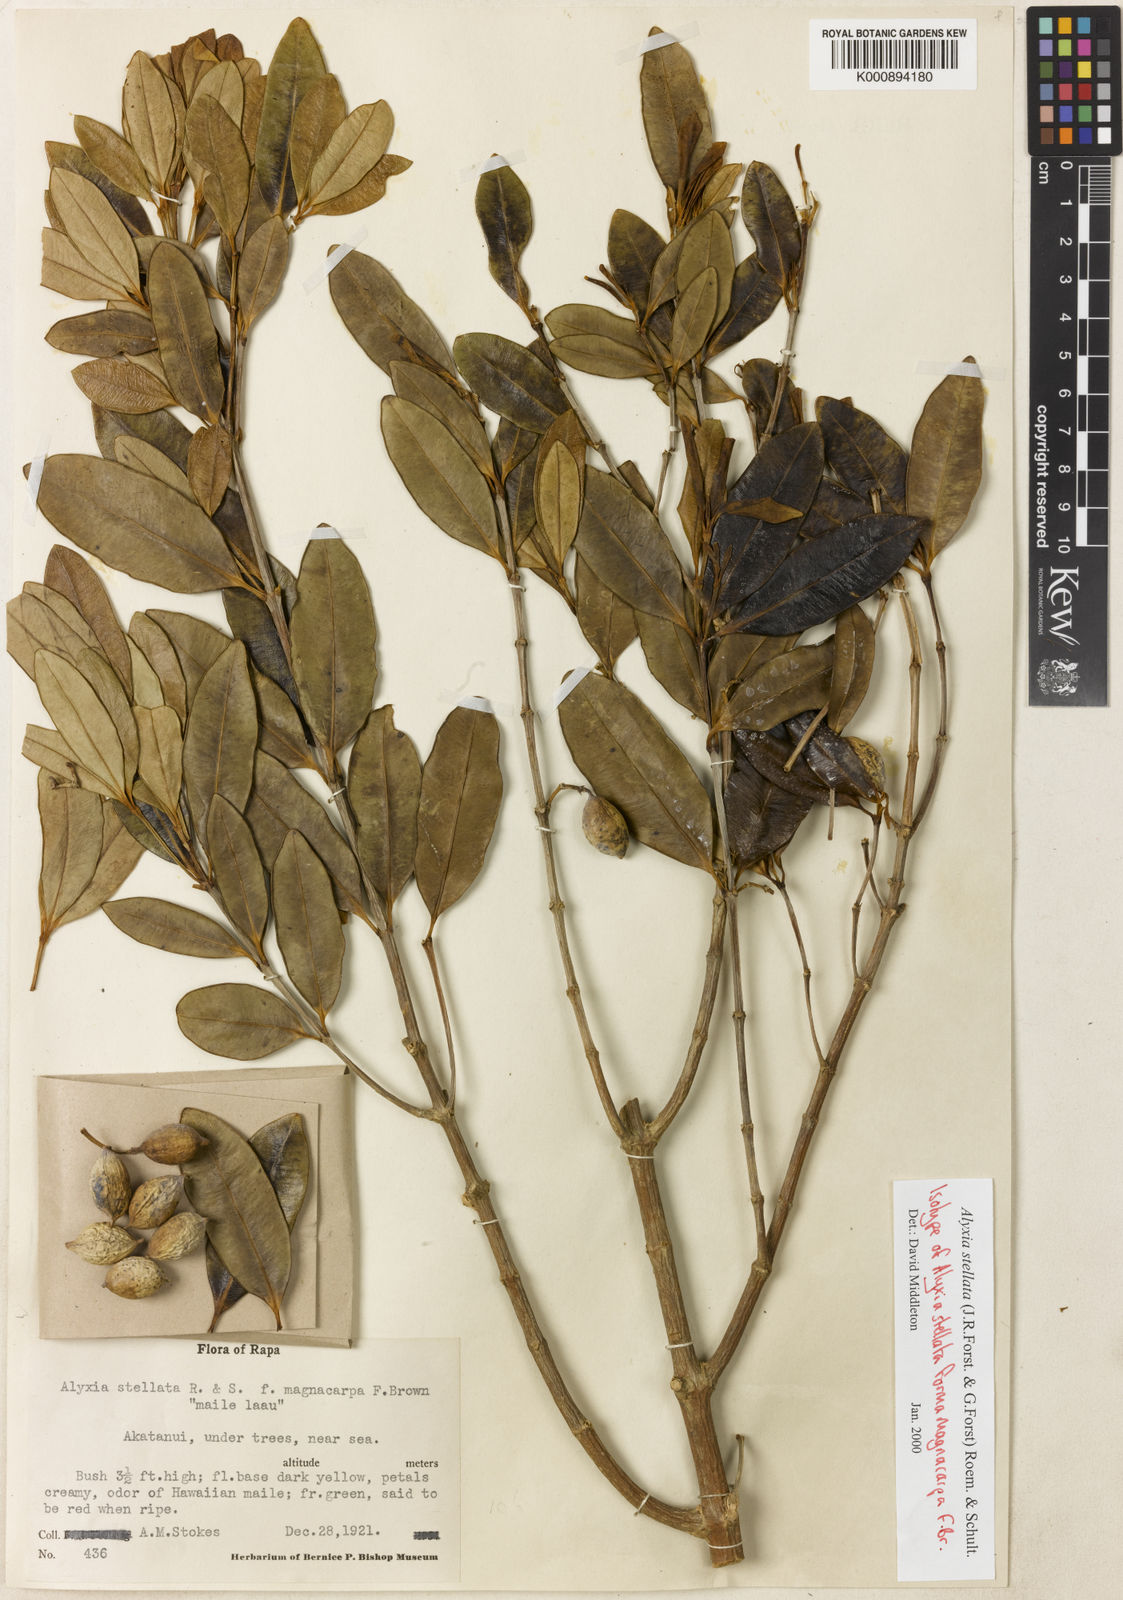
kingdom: Plantae
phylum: Tracheophyta
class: Magnoliopsida
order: Gentianales
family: Apocynaceae
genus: Alyxia
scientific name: Alyxia stellata
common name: Maile
